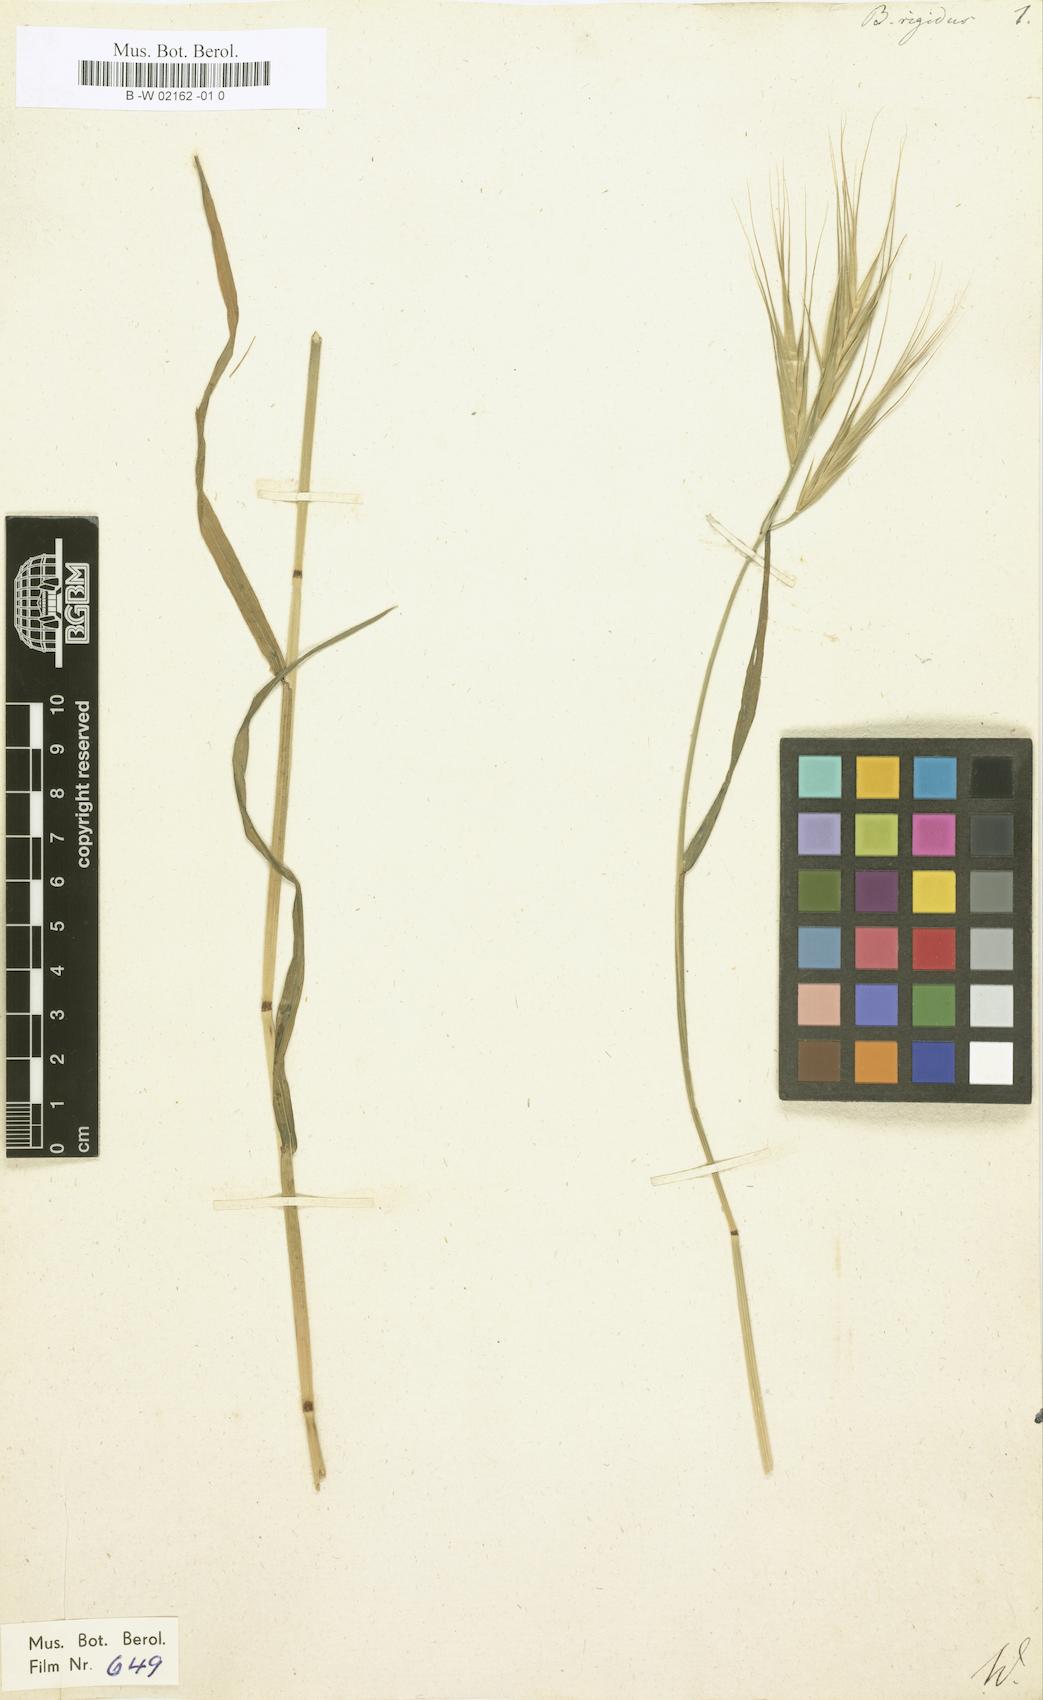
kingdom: Plantae
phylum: Tracheophyta
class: Liliopsida
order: Poales
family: Poaceae
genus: Bromus
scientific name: Bromus rigidus
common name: Ripgut brome
